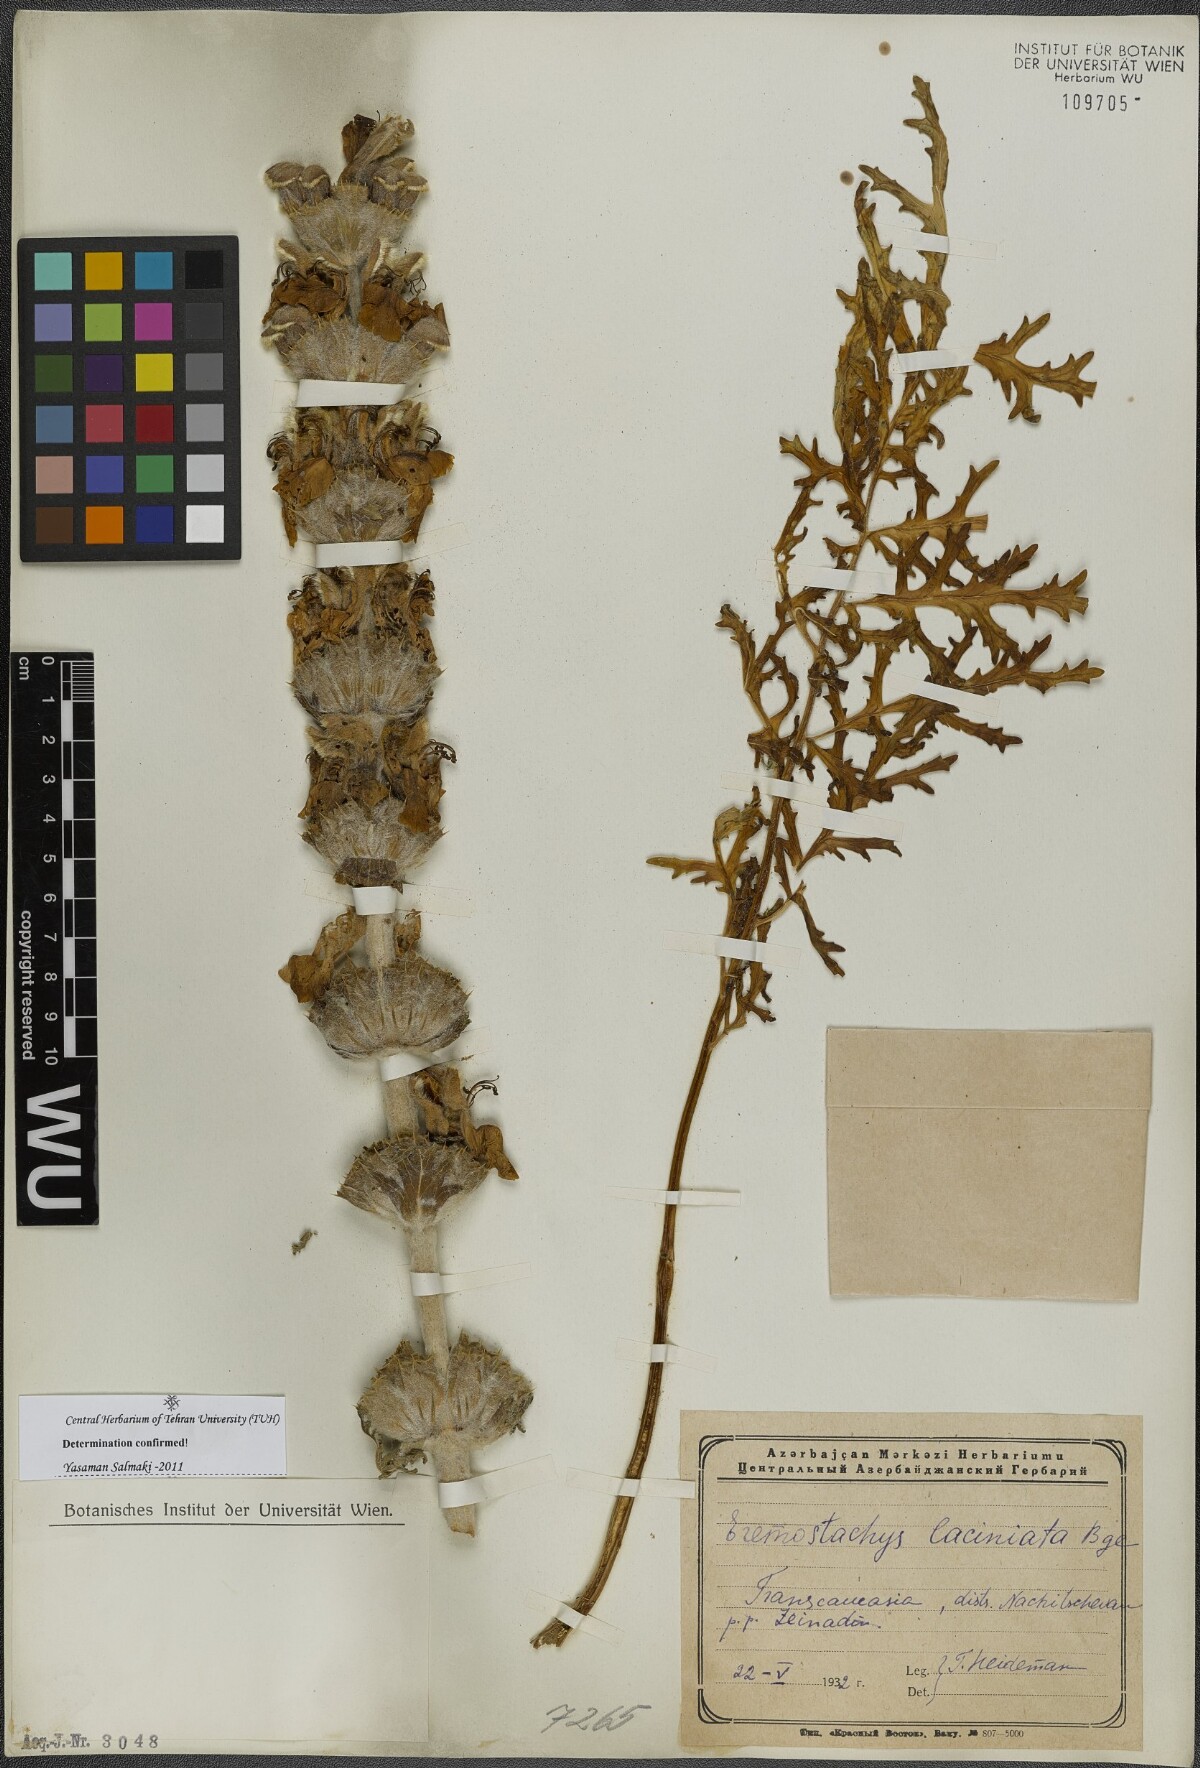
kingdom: Plantae
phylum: Tracheophyta
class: Magnoliopsida
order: Lamiales
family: Lamiaceae
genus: Phlomoides
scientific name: Phlomoides laciniata
